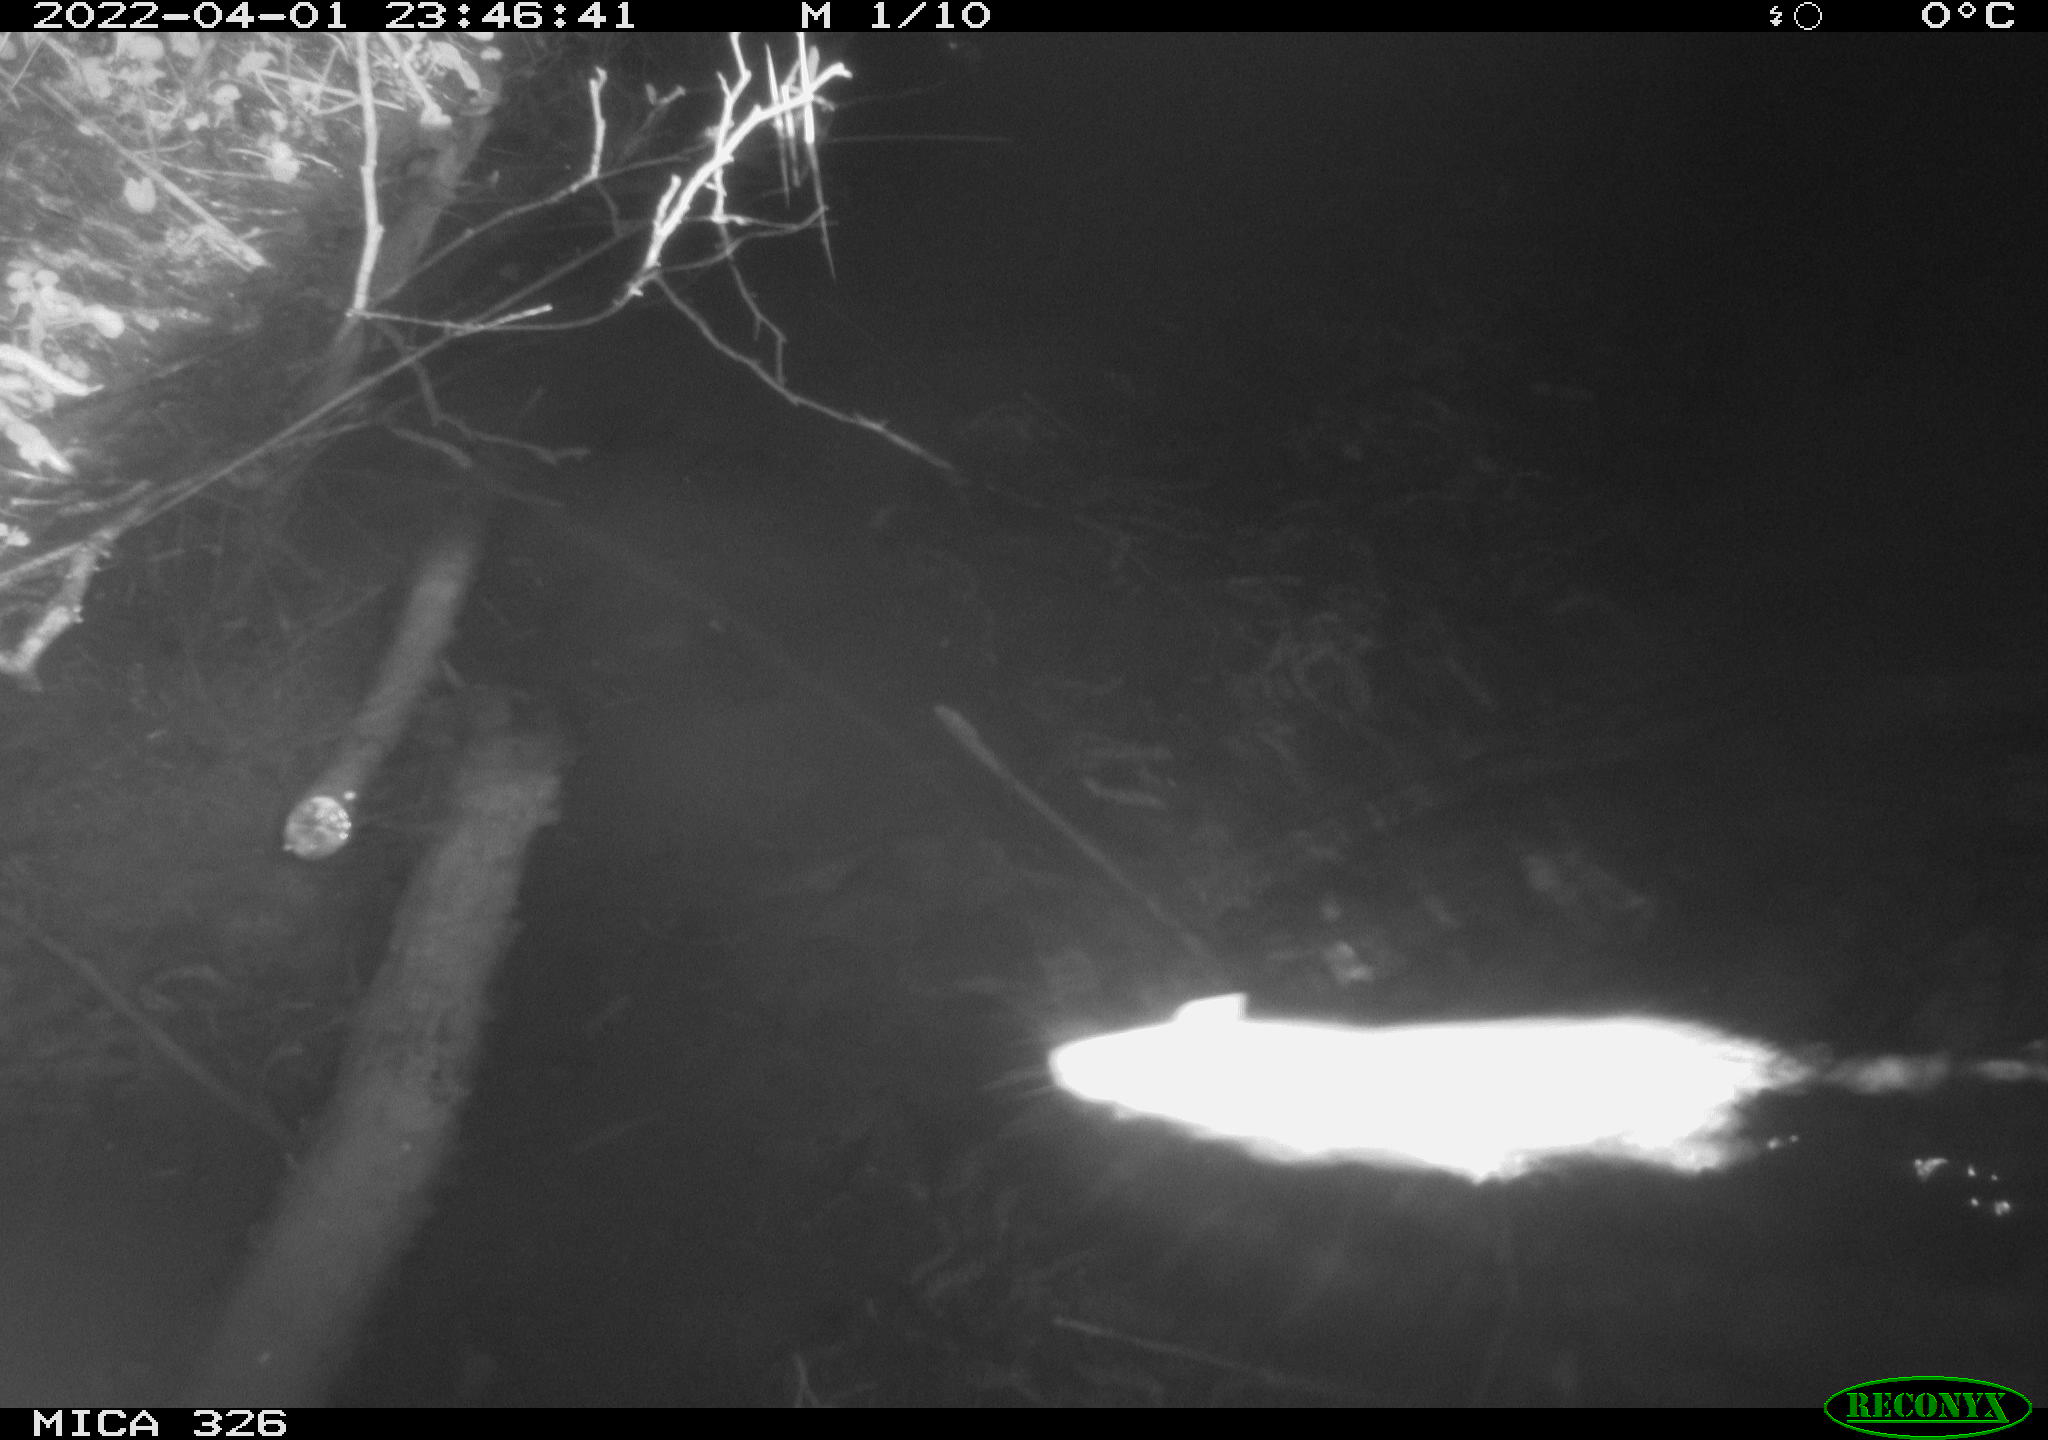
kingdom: Animalia
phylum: Chordata
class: Mammalia
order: Rodentia
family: Muridae
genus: Rattus
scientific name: Rattus norvegicus
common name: Brown rat
